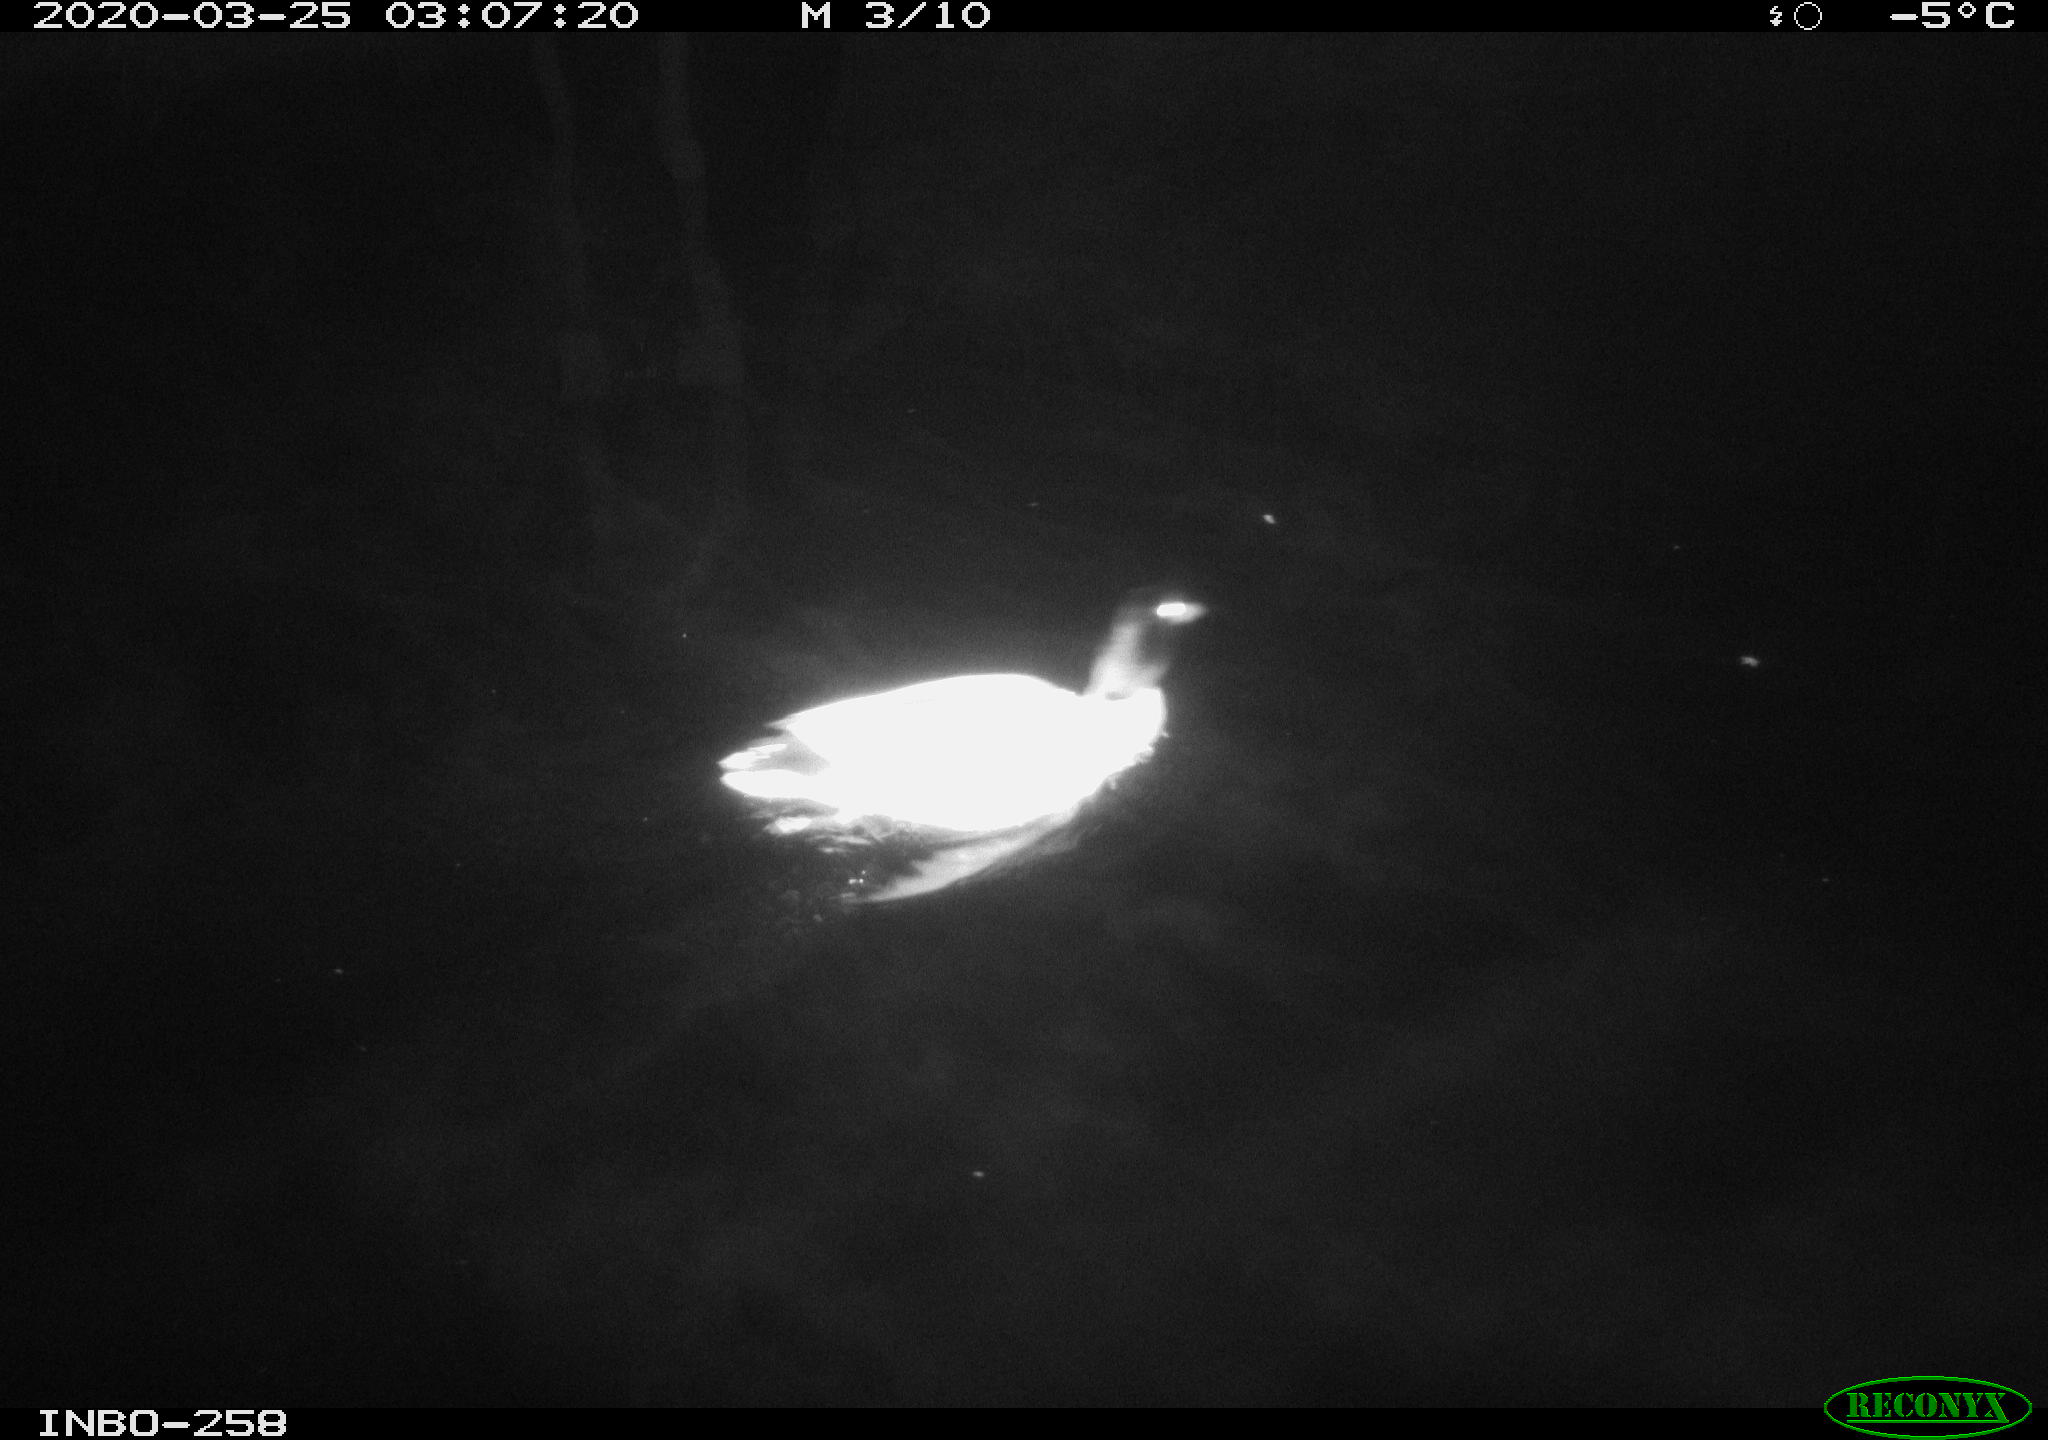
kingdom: Animalia
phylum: Chordata
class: Aves
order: Anseriformes
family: Anatidae
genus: Anas
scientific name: Anas platyrhynchos
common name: Mallard
